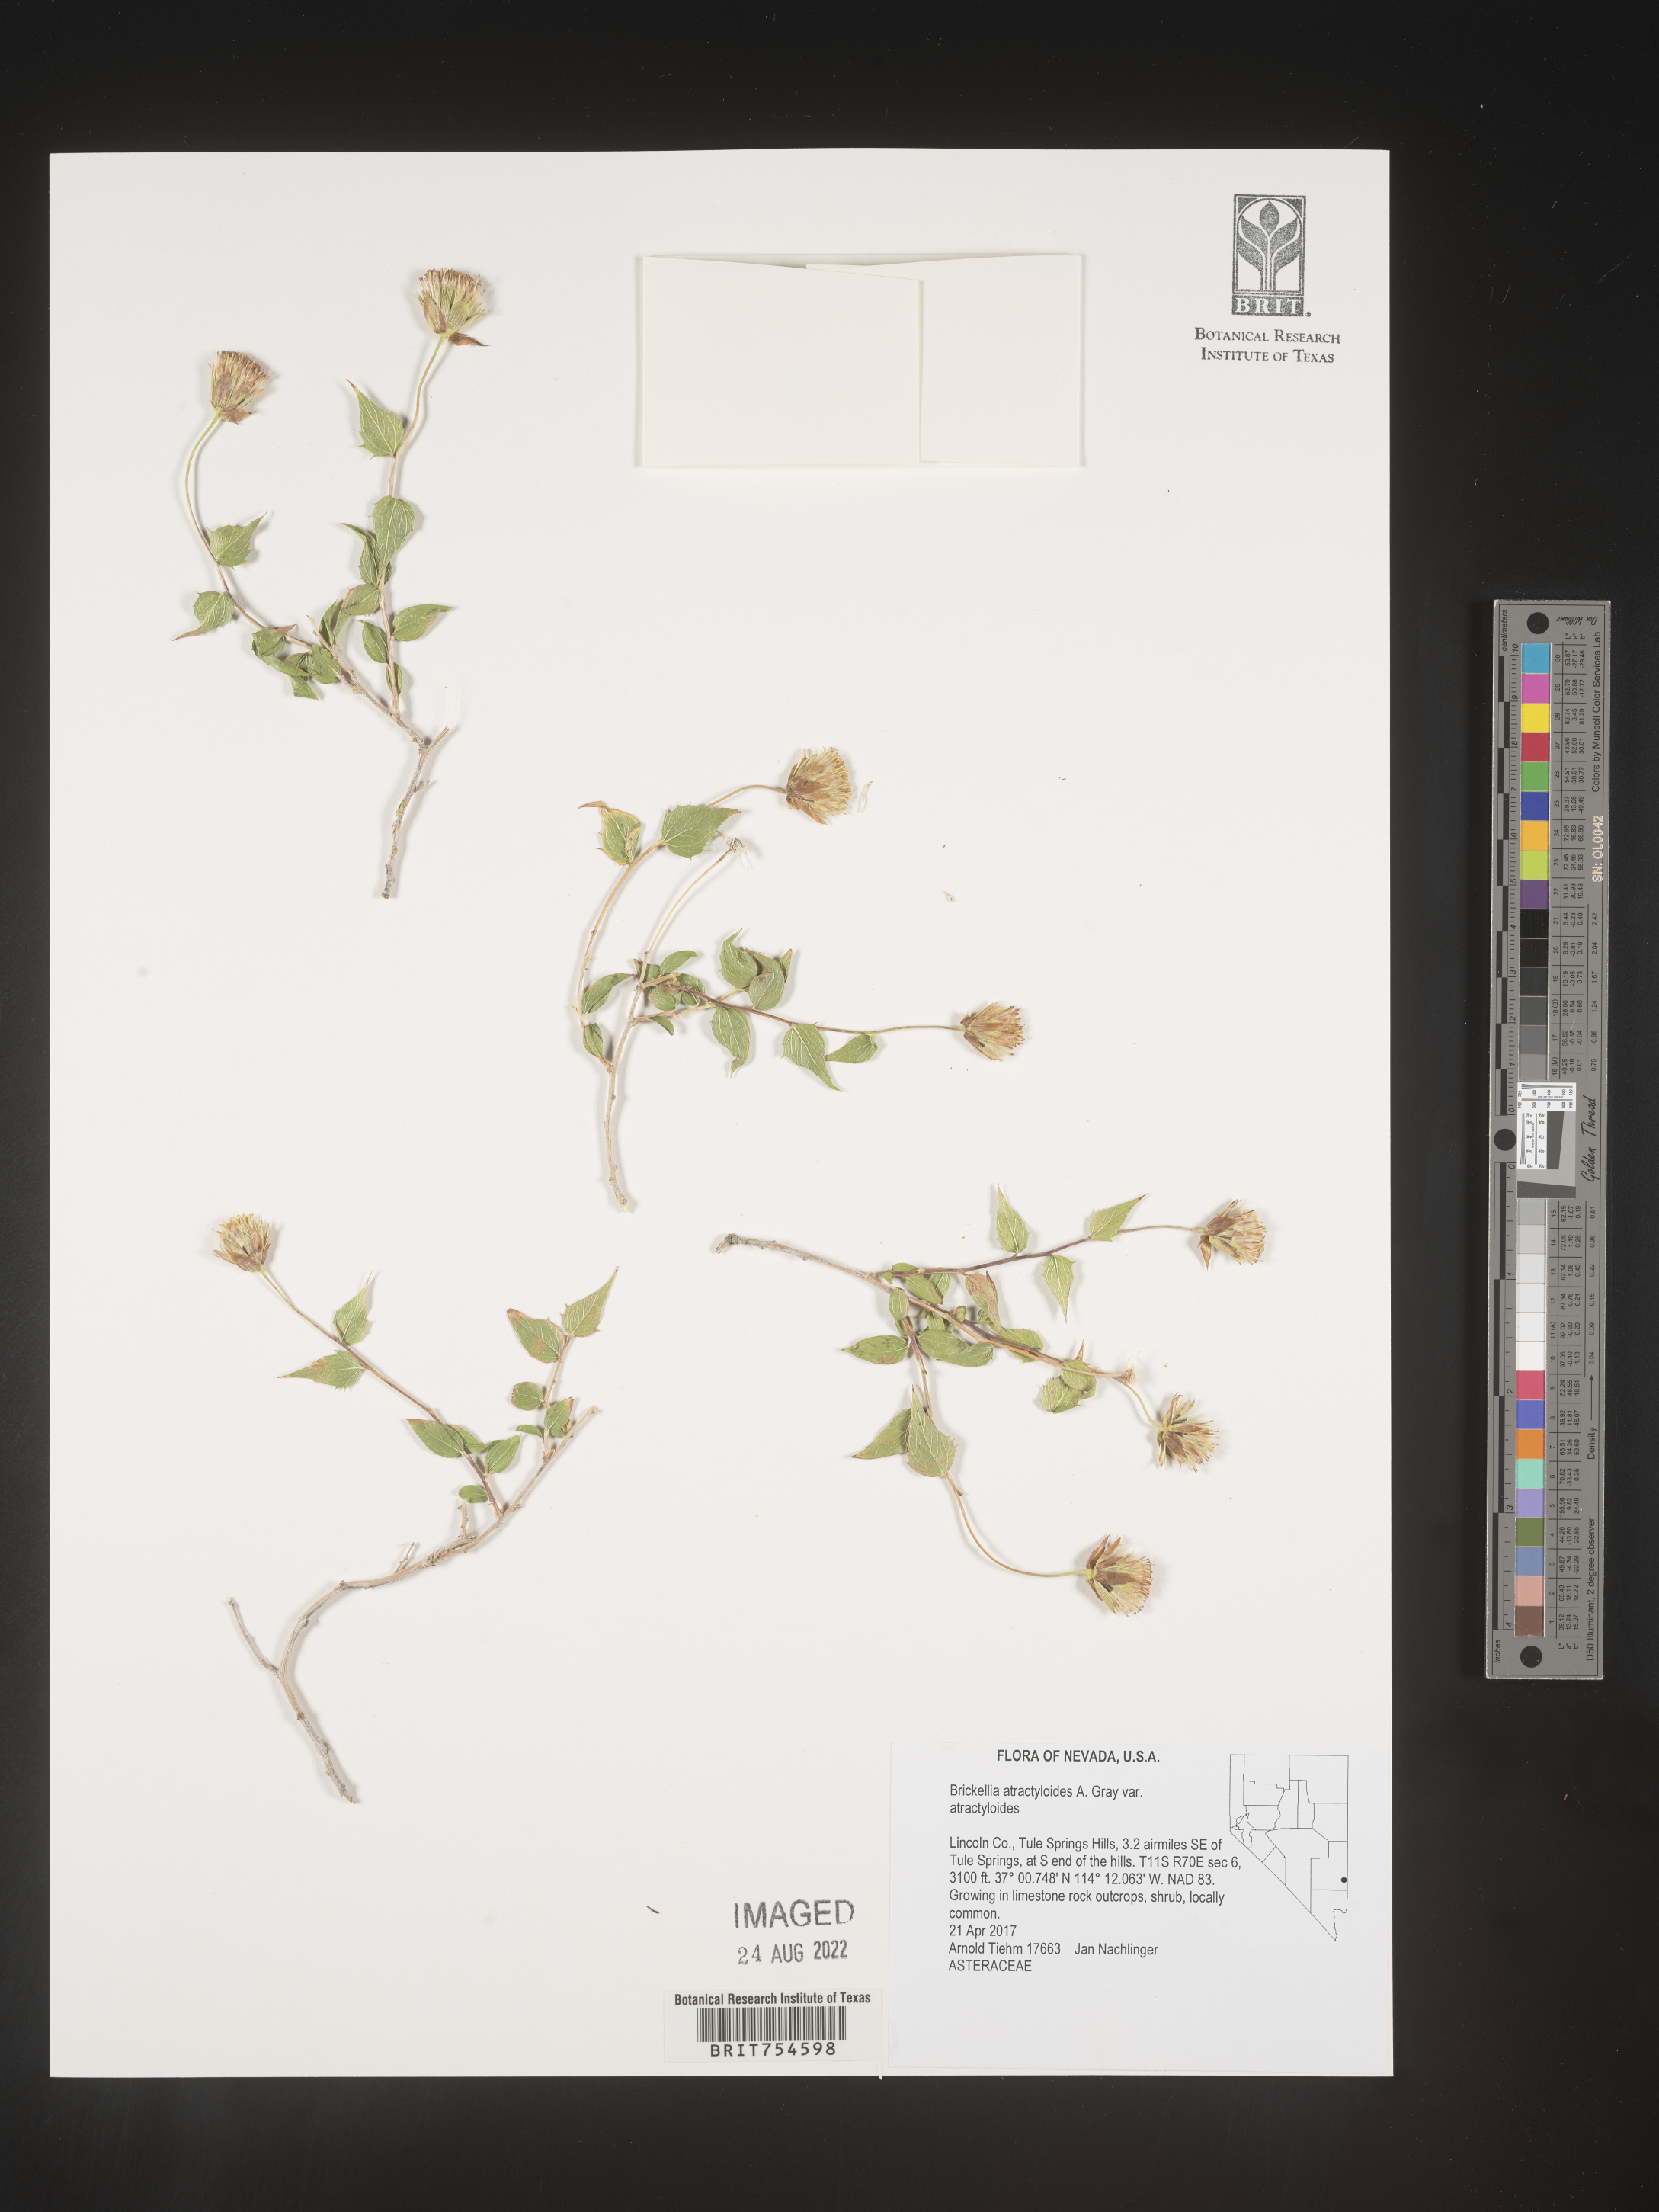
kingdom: Plantae
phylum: Tracheophyta
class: Magnoliopsida
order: Asterales
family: Asteraceae
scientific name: Asteraceae
